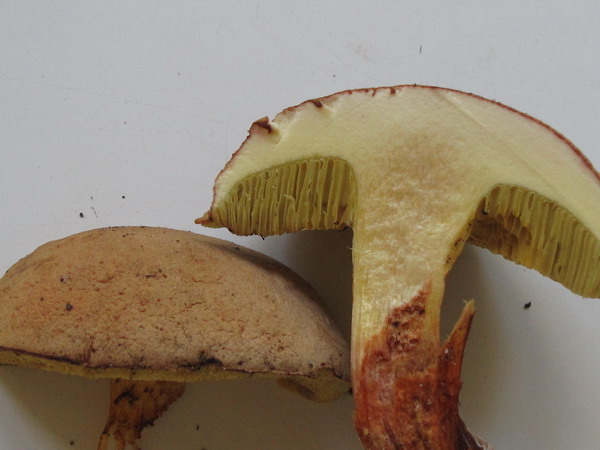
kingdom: Fungi
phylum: Basidiomycota
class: Agaricomycetes
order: Boletales
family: Boletaceae
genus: Xerocomus
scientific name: Xerocomus subtomentosus
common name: filtet rørhat
